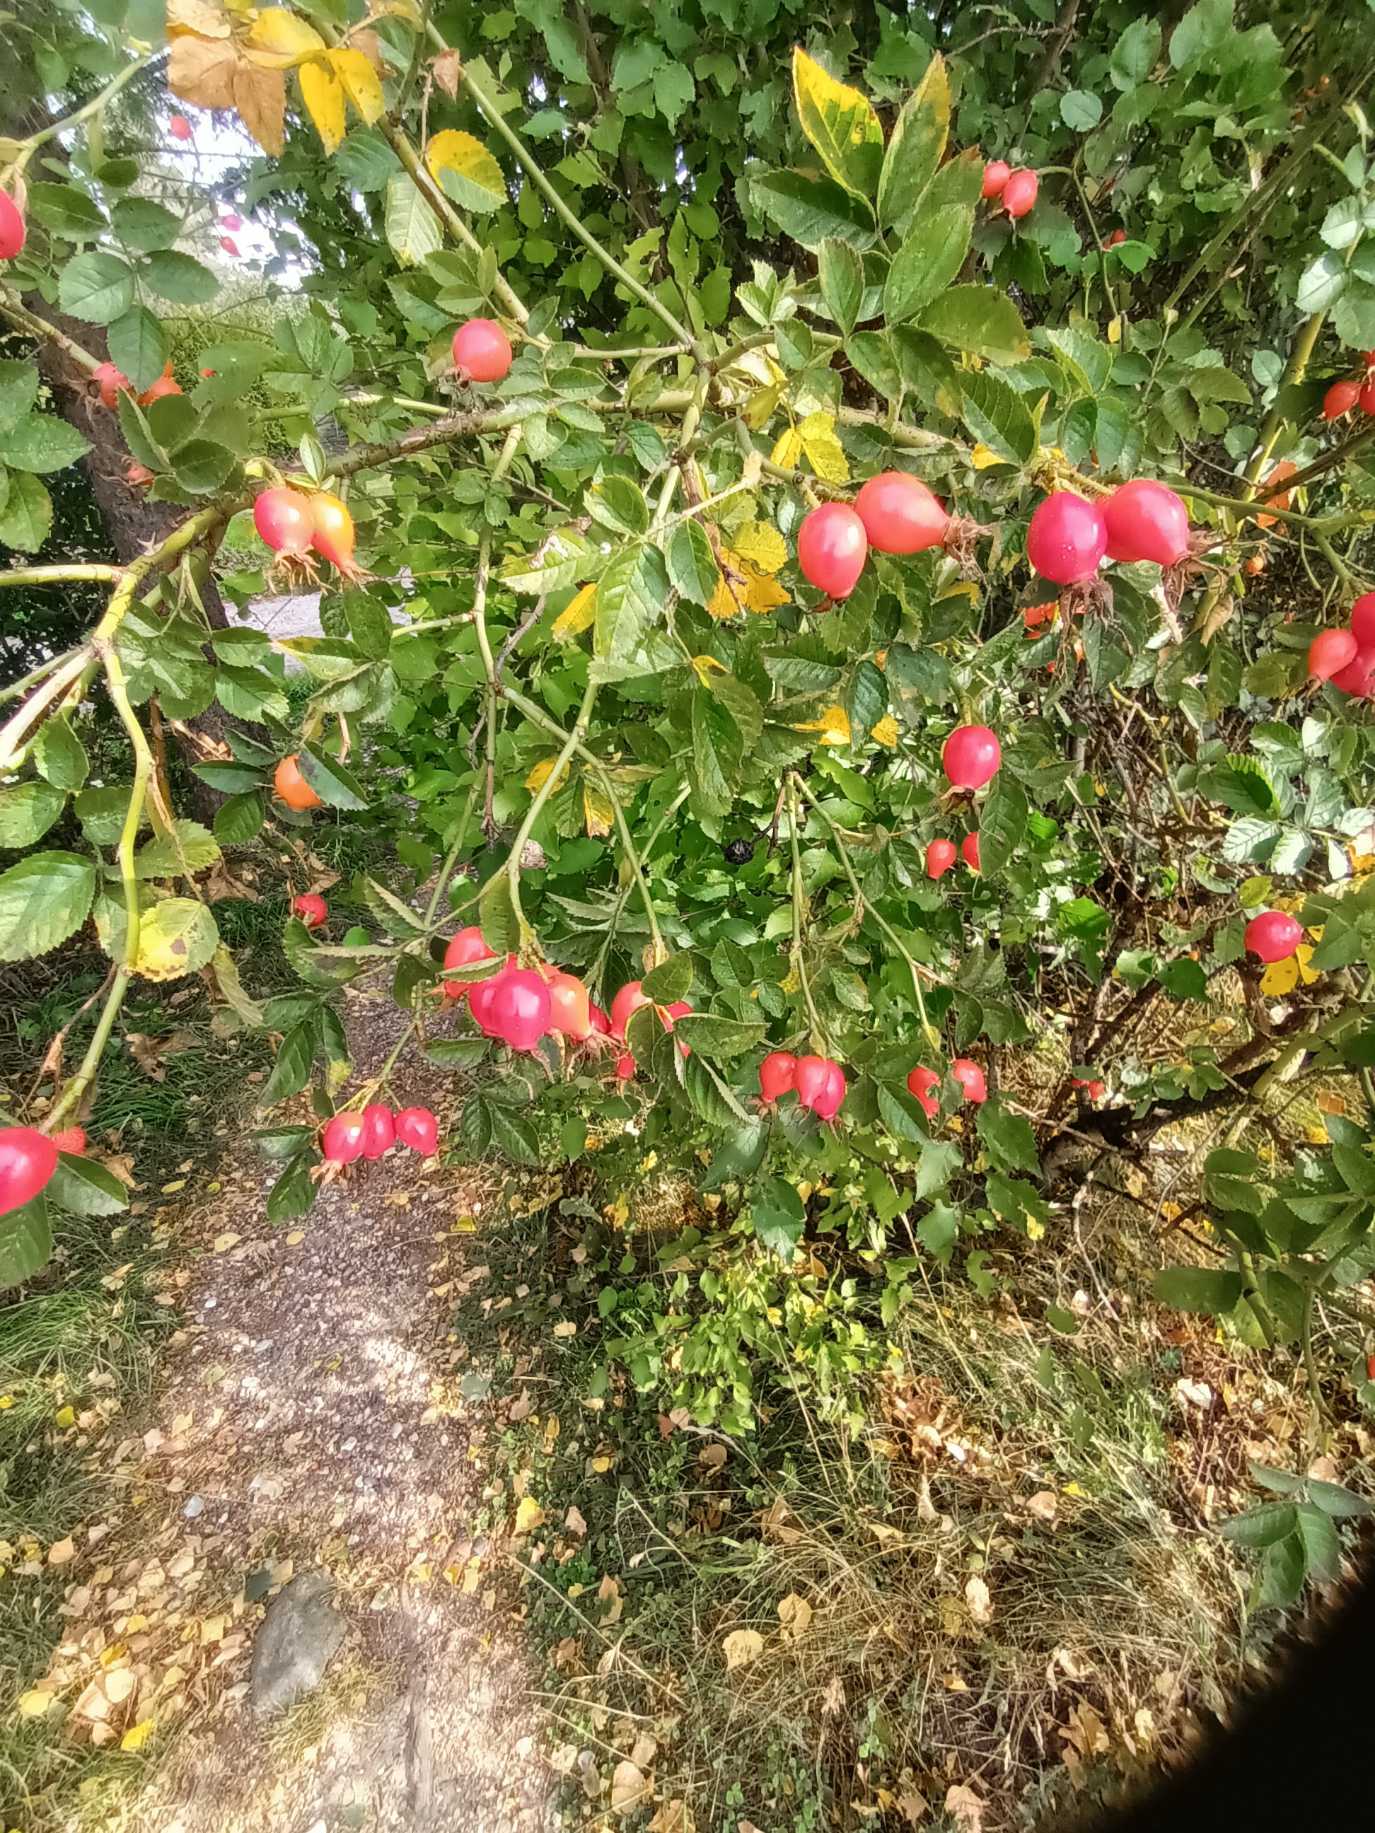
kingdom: Plantae
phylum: Tracheophyta
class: Magnoliopsida
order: Rosales
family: Rosaceae
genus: Rosa
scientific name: Rosa balsamica
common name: Rubladet rose
